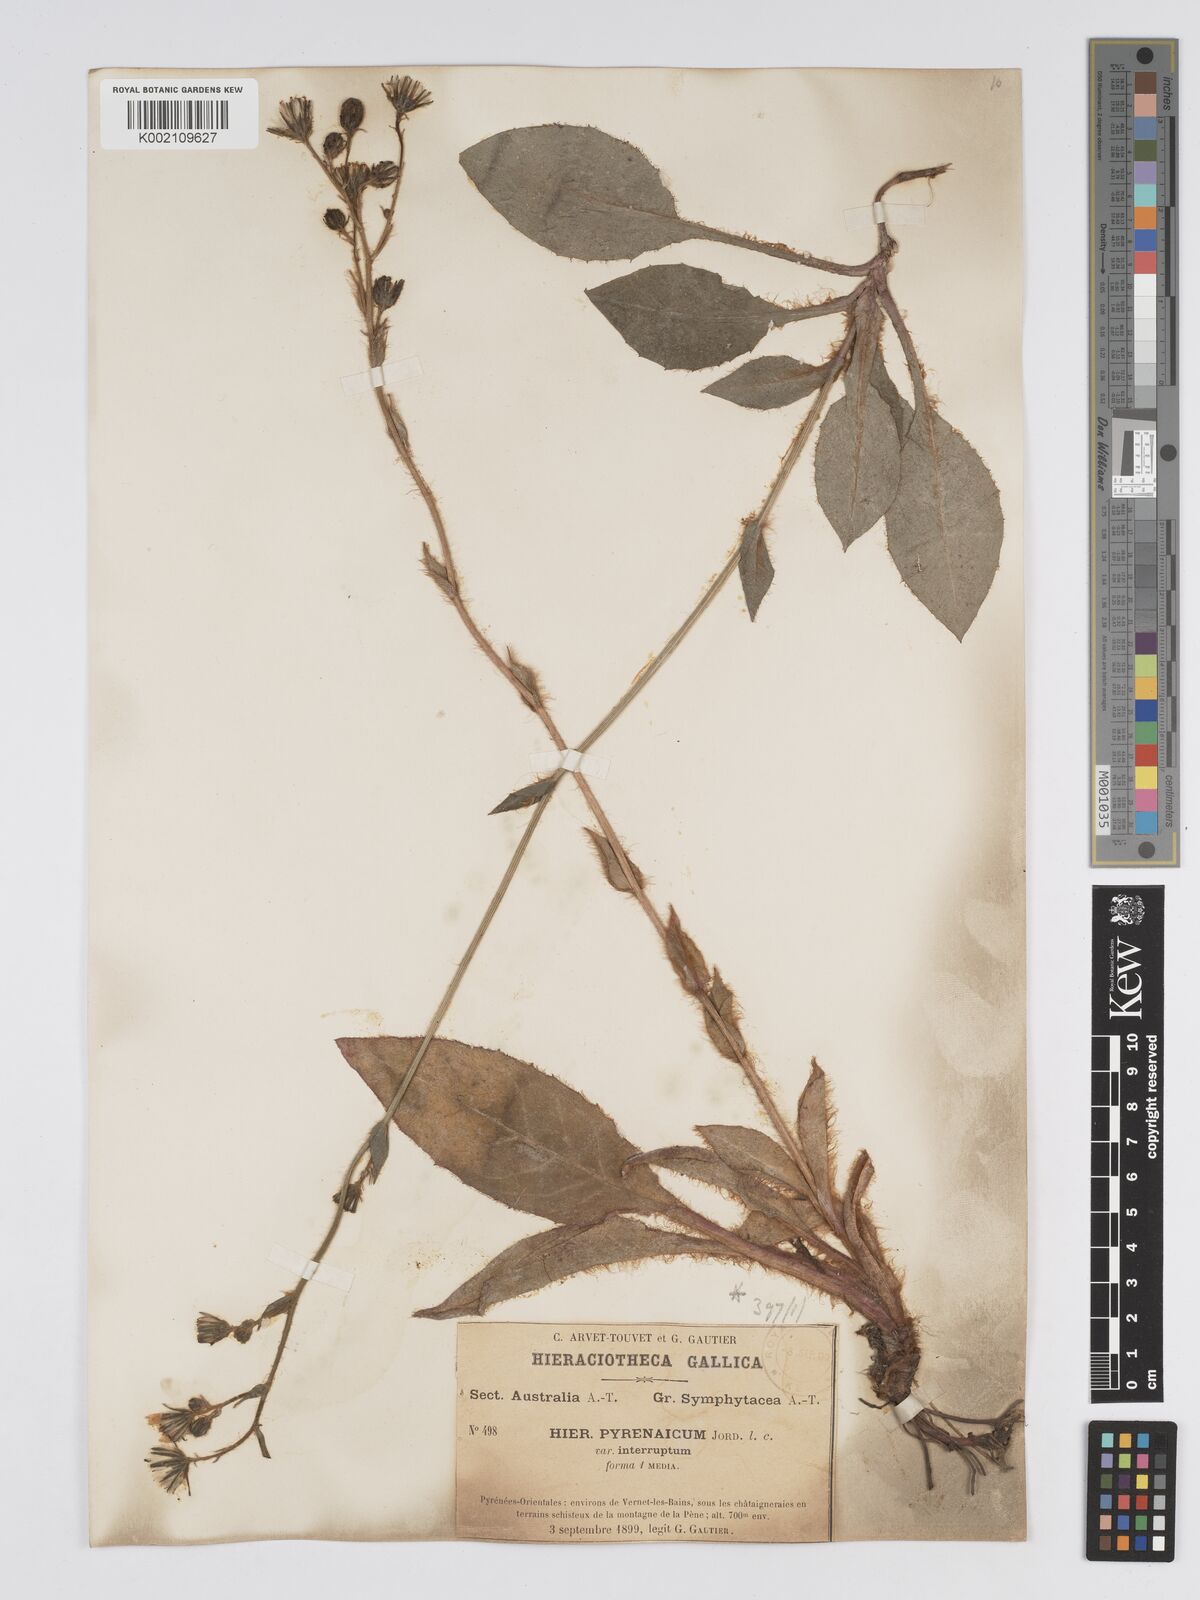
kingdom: Plantae
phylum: Tracheophyta
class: Magnoliopsida
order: Asterales
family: Asteraceae
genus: Hieracium
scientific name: Hieracium nobile
